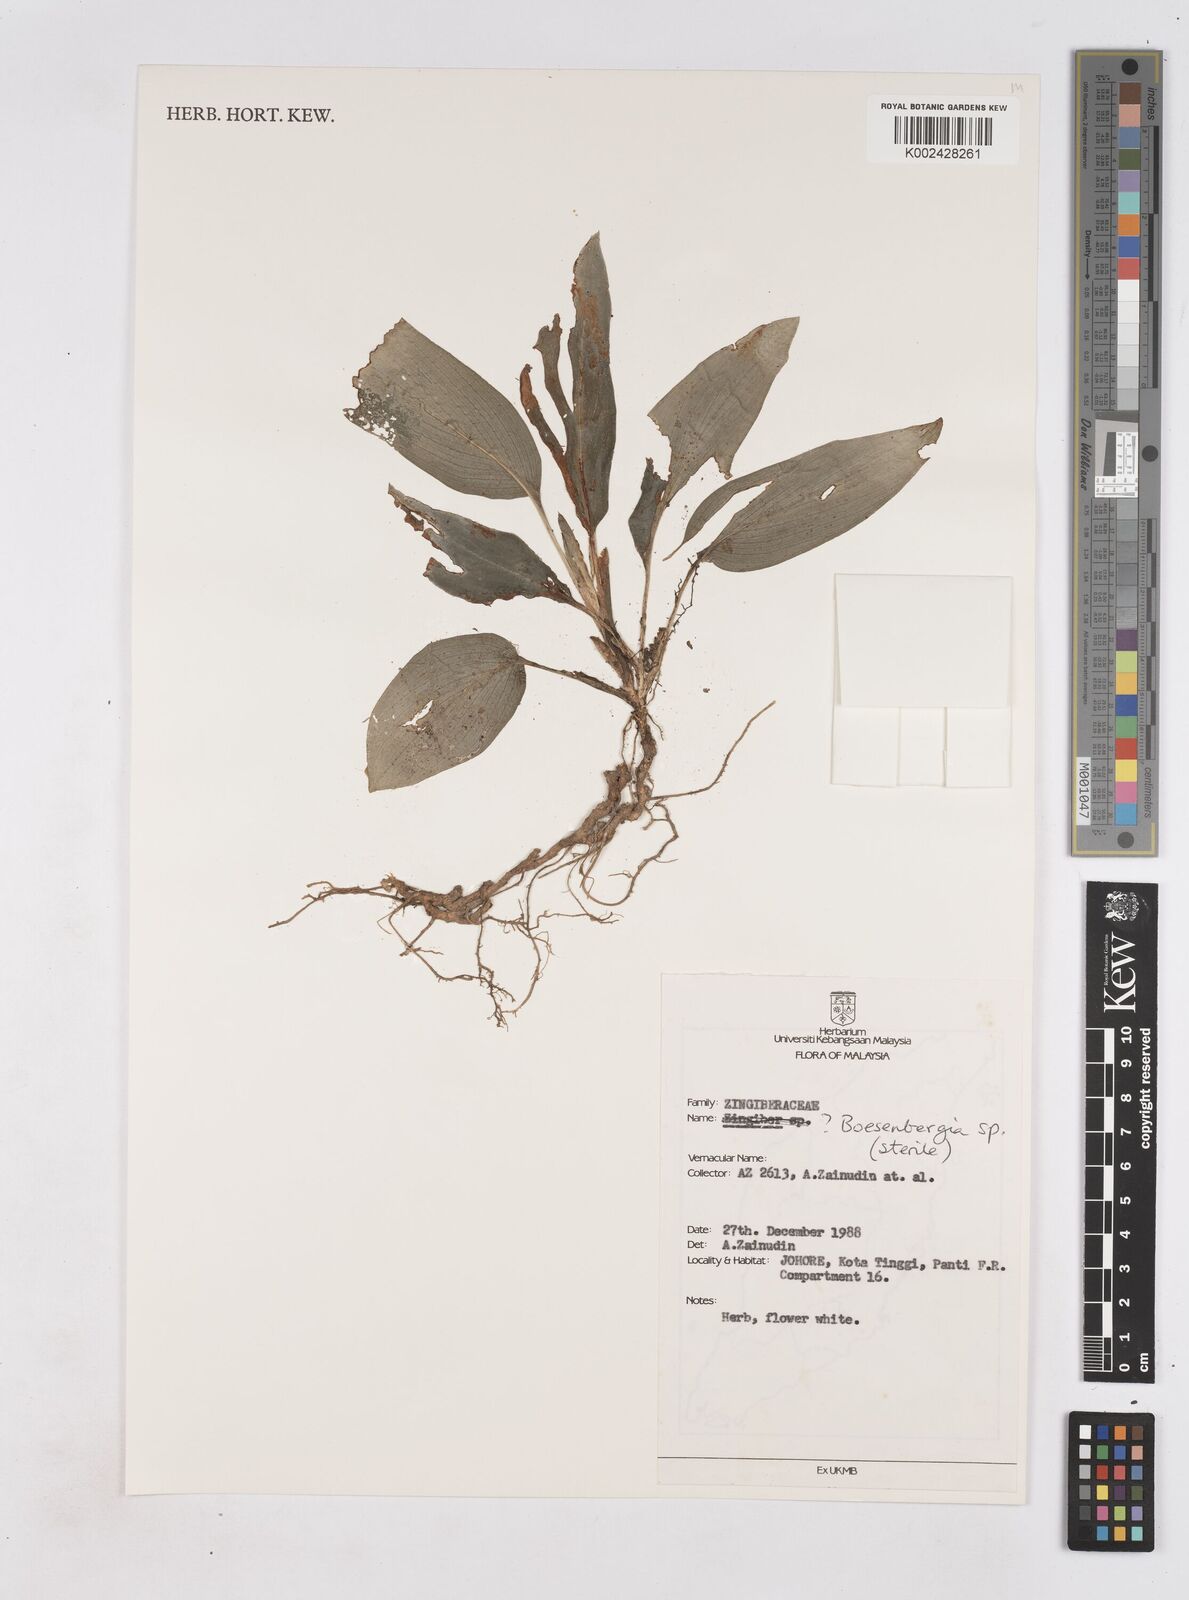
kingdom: Plantae
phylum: Tracheophyta
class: Liliopsida
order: Zingiberales
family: Zingiberaceae
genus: Boesenbergia
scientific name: Boesenbergia
